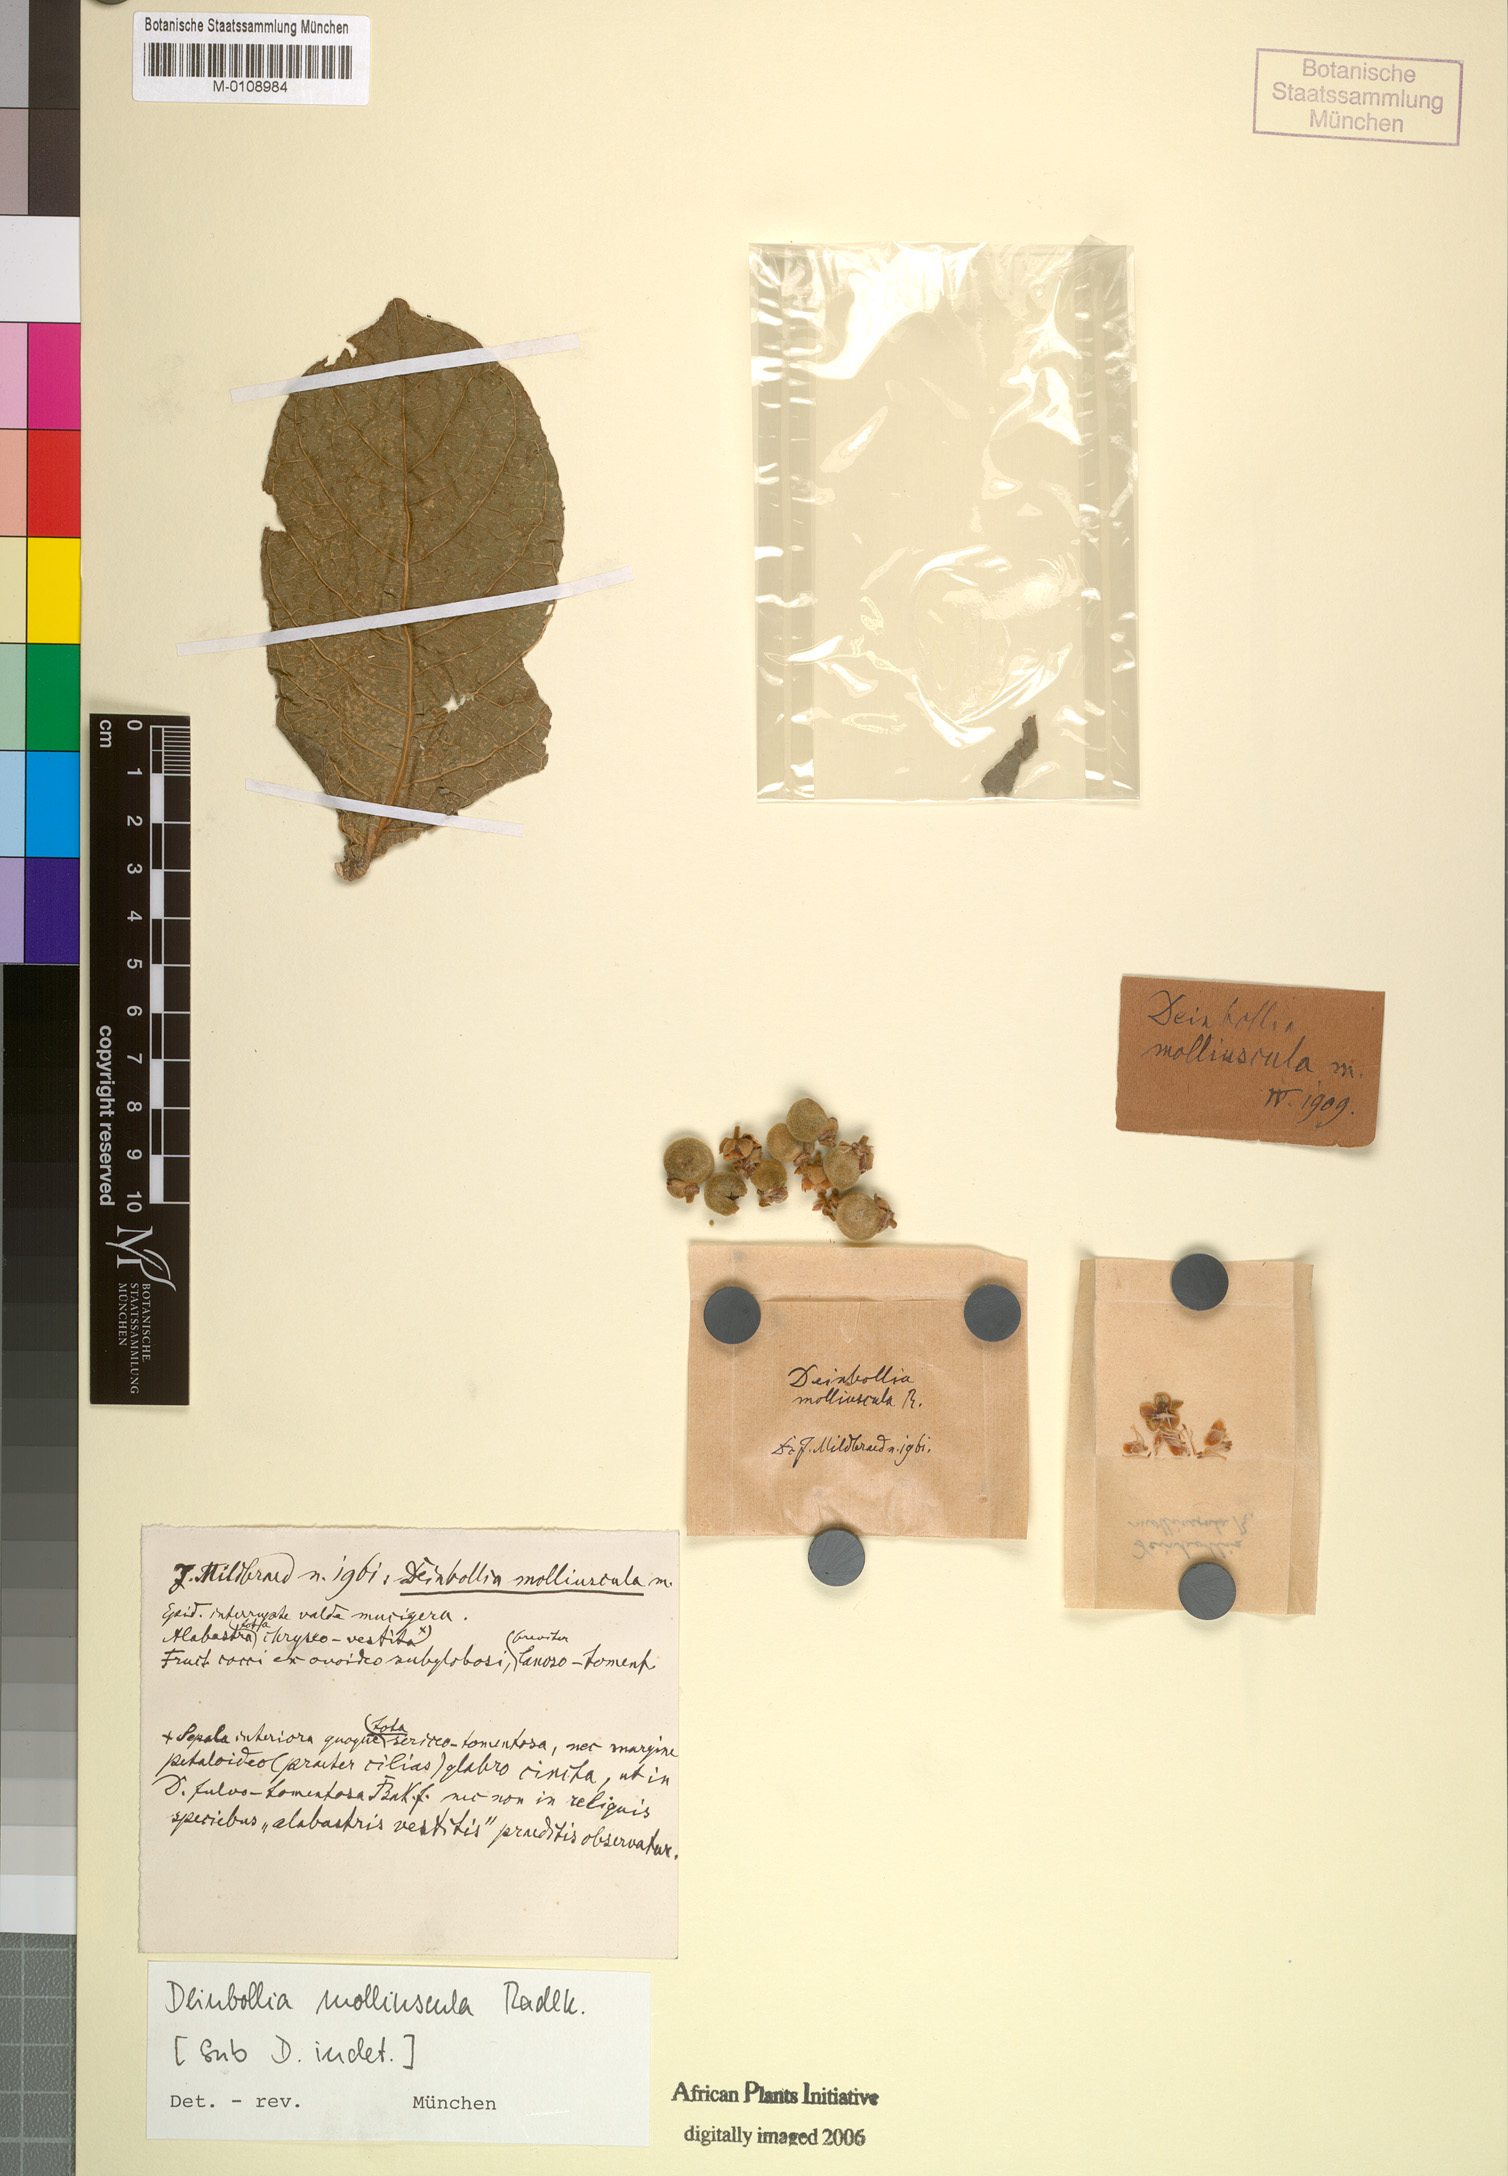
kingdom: Plantae
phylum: Tracheophyta
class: Magnoliopsida
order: Sapindales
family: Sapindaceae
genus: Deinbollia
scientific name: Deinbollia fulvotomentella
